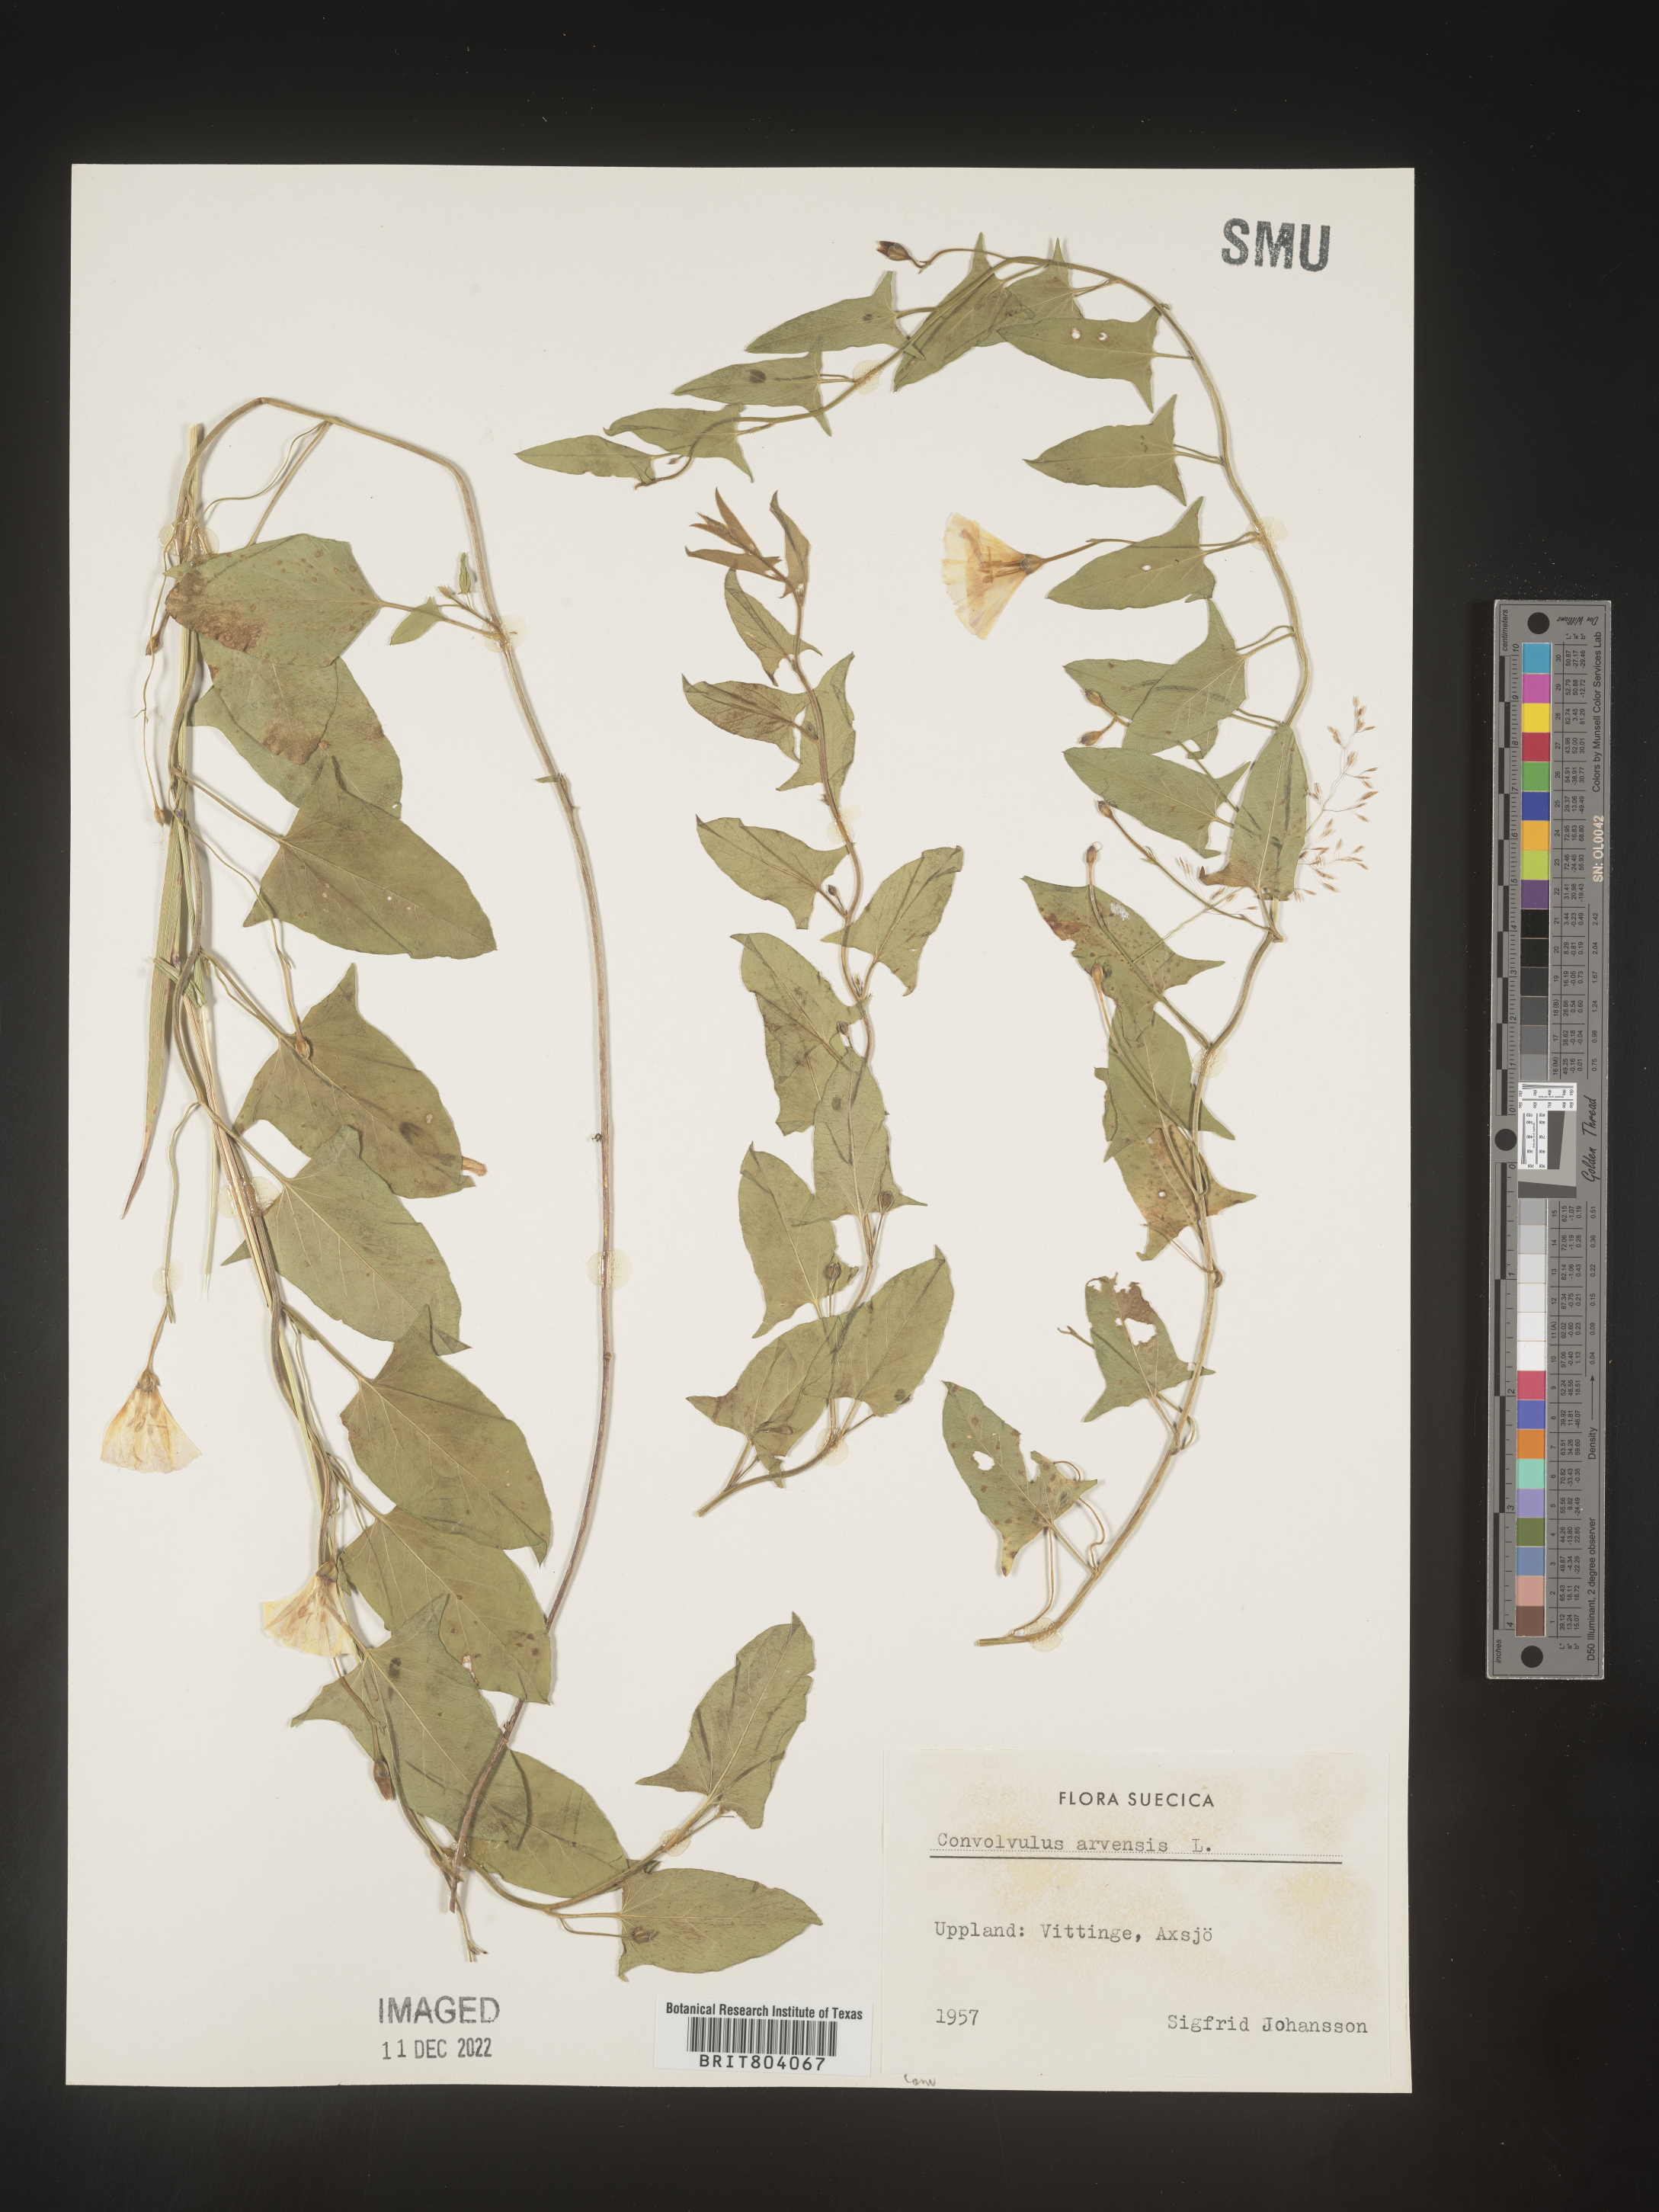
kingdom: Plantae
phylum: Tracheophyta
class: Magnoliopsida
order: Solanales
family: Convolvulaceae
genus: Convolvulus
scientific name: Convolvulus
